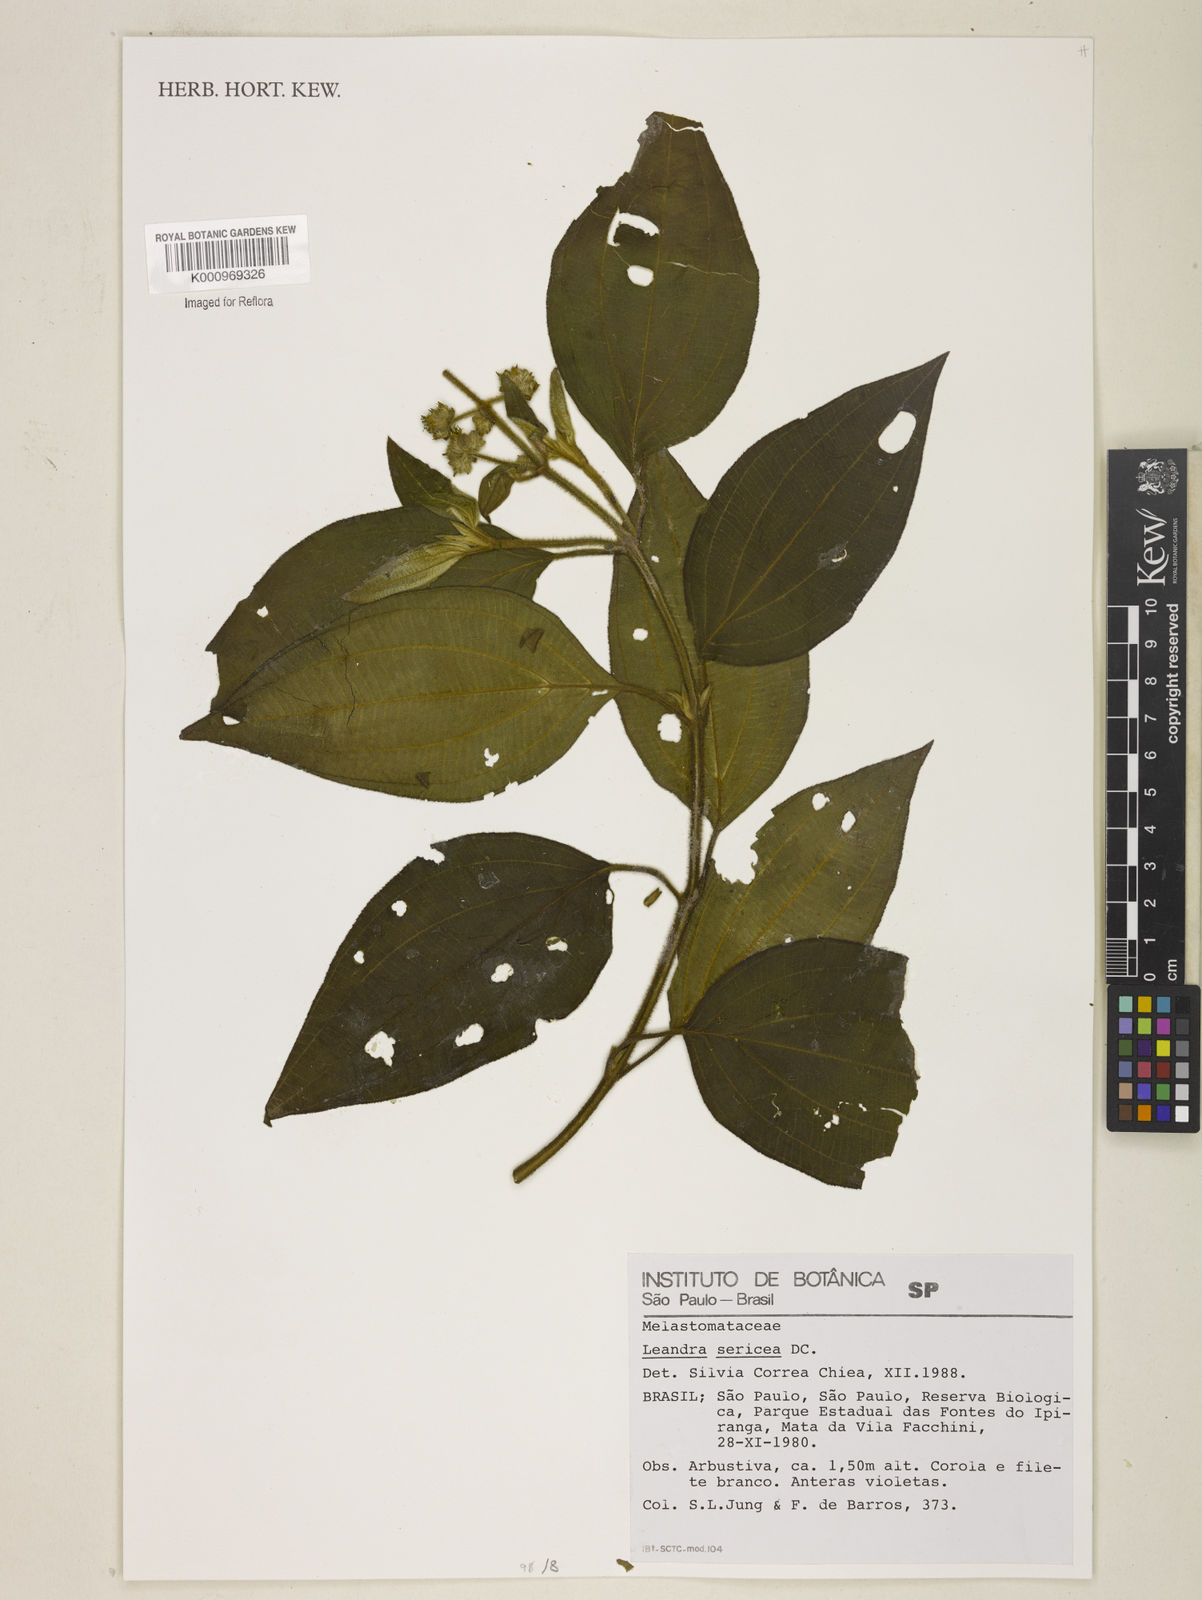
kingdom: Plantae
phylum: Tracheophyta
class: Magnoliopsida
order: Myrtales
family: Melastomataceae
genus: Miconia
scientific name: Miconia raddii
